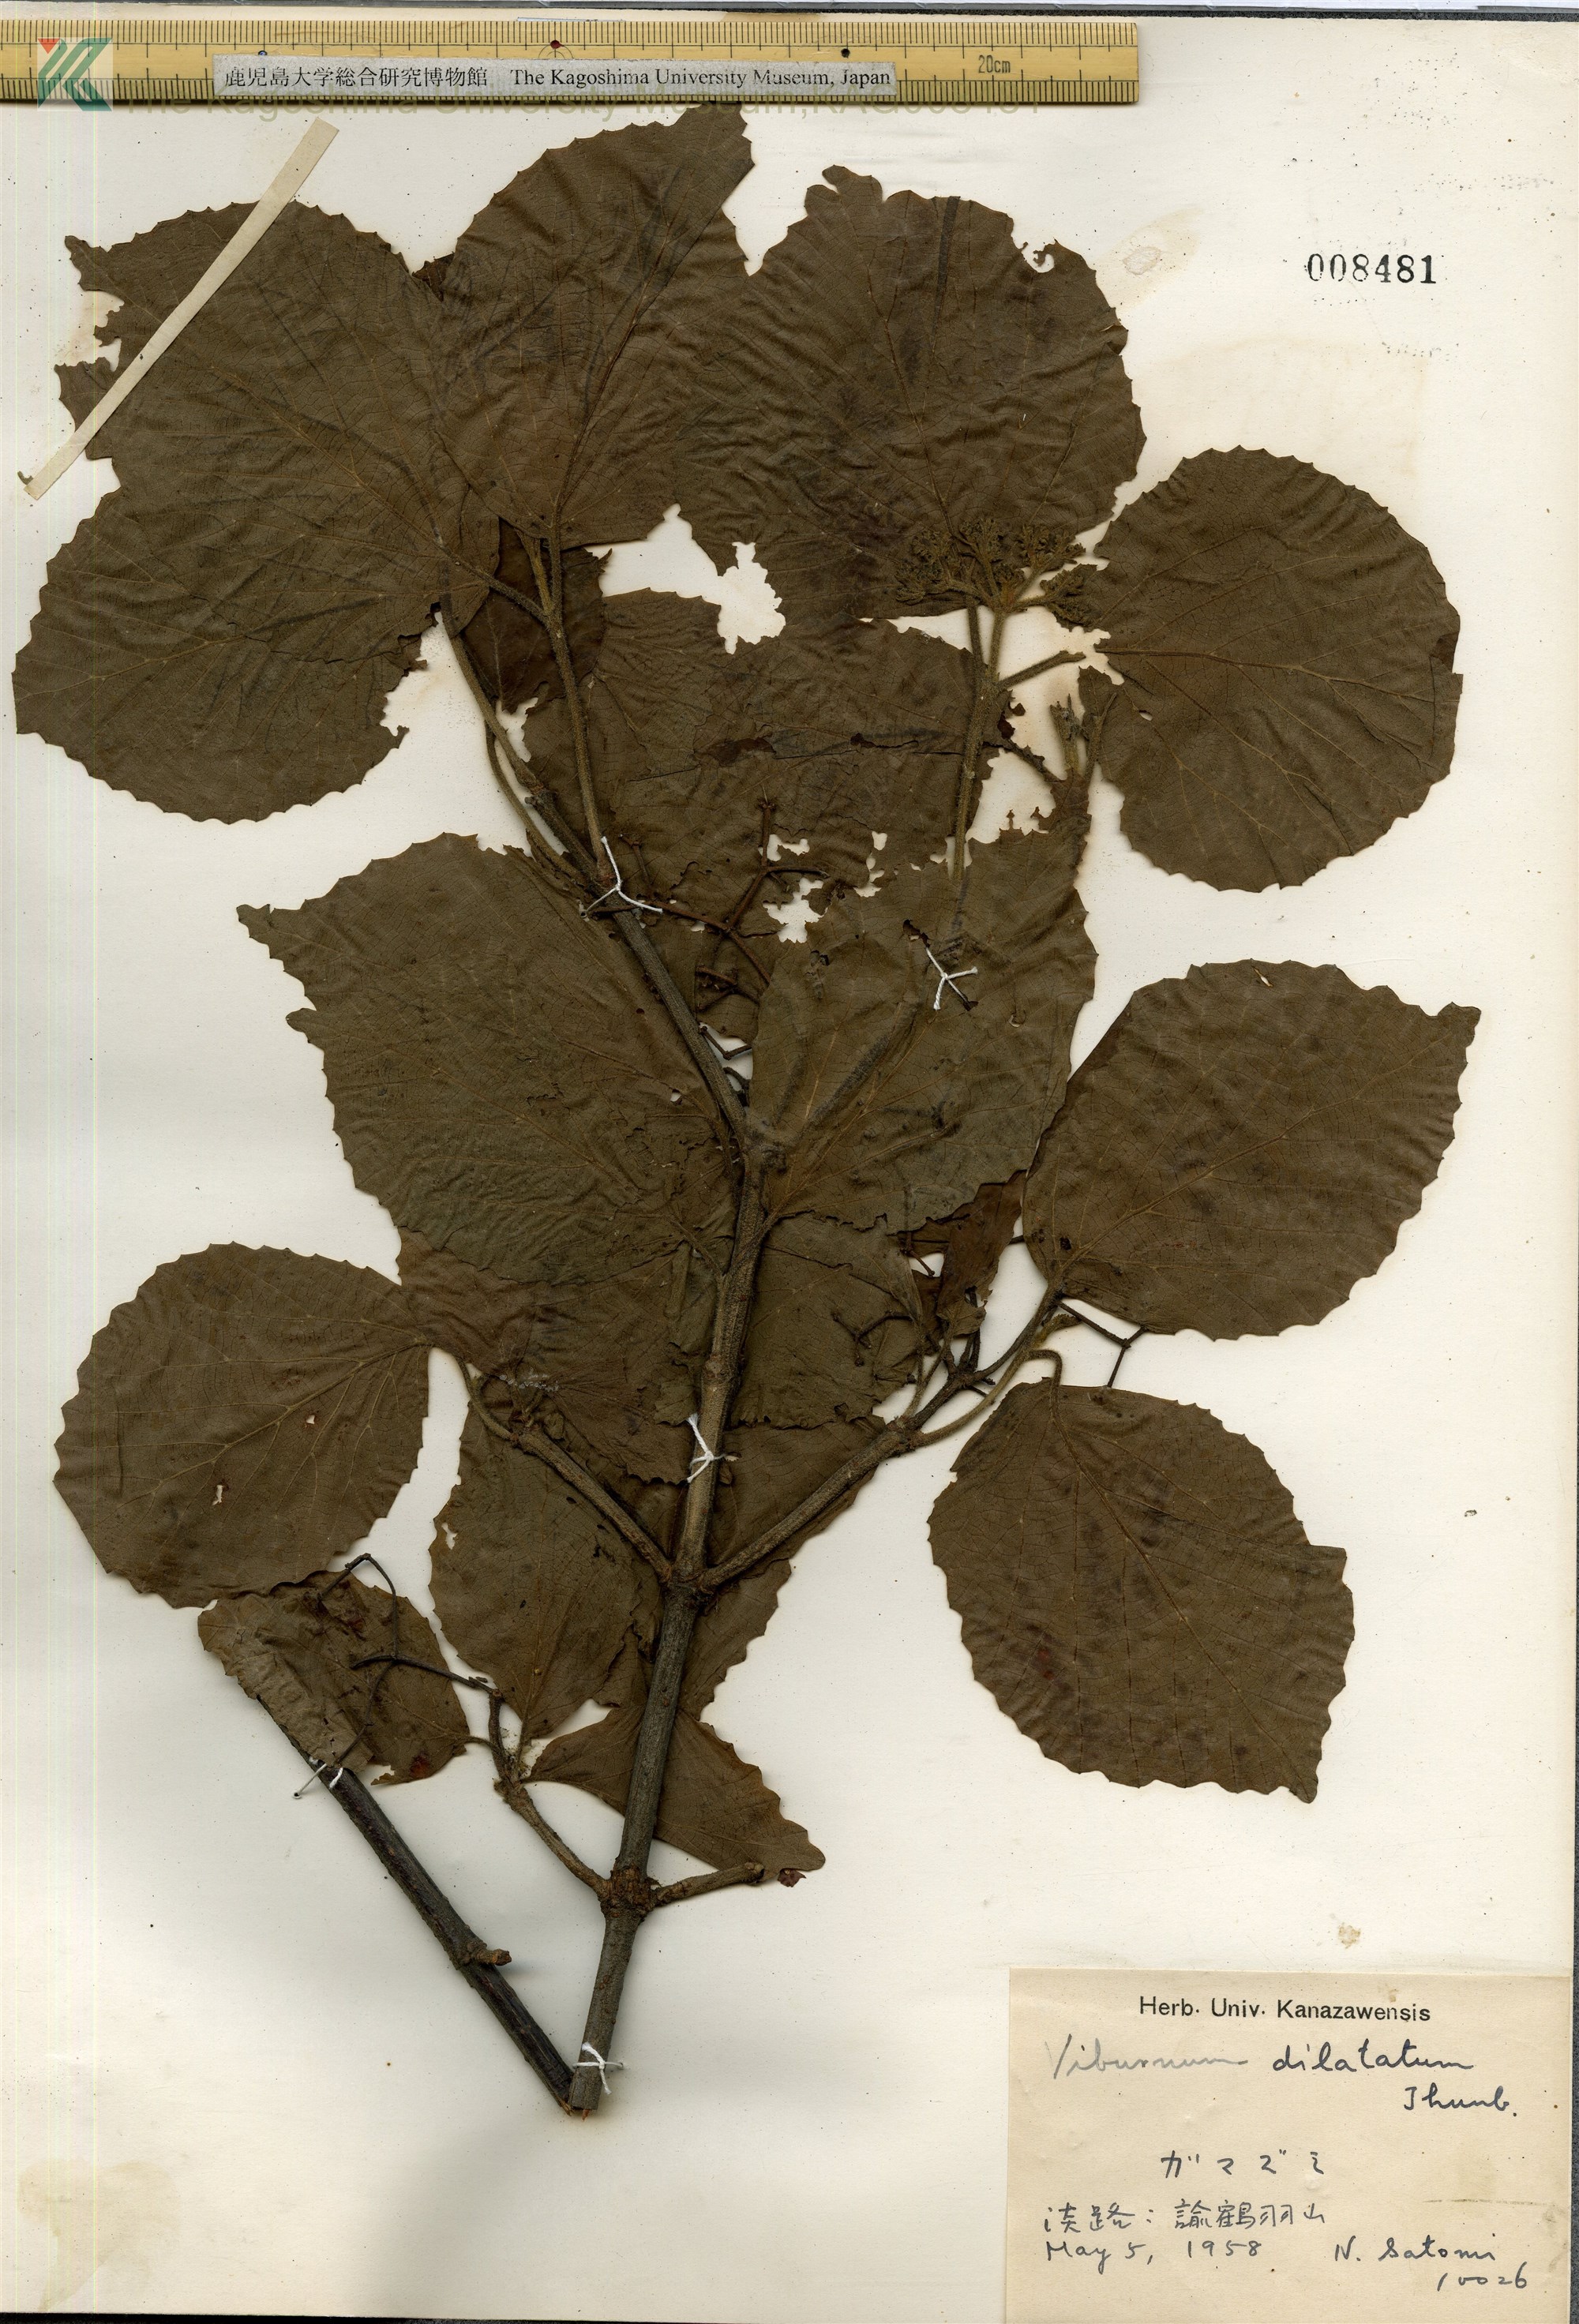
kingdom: Plantae
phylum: Tracheophyta
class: Magnoliopsida
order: Dipsacales
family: Viburnaceae
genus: Viburnum
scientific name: Viburnum dilatatum
